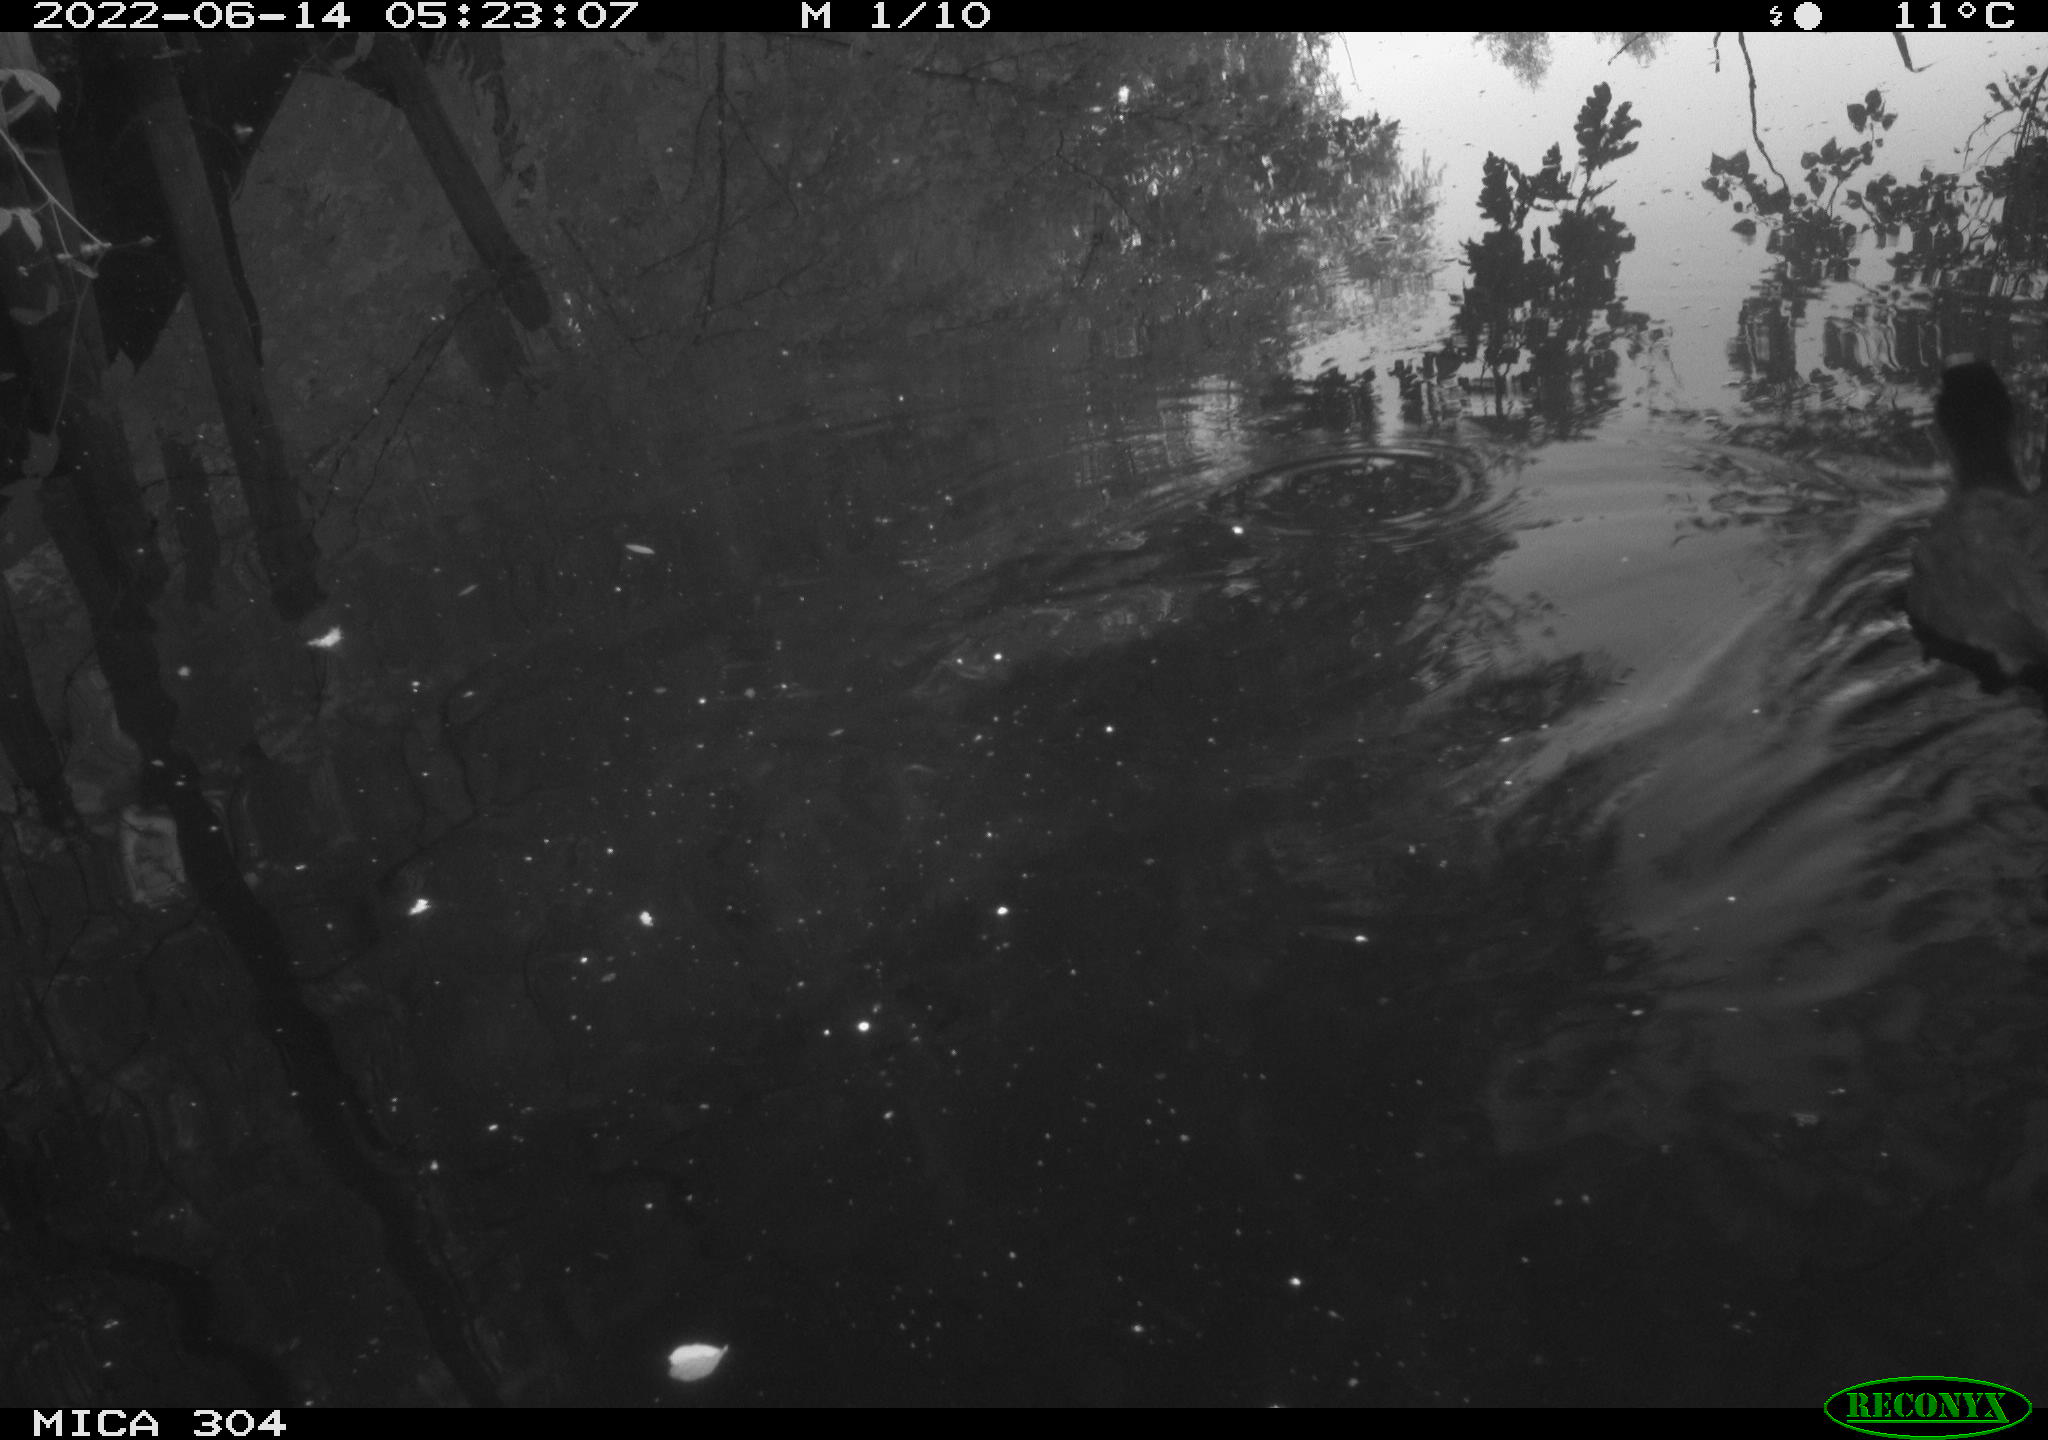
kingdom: Animalia
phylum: Chordata
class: Aves
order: Gruiformes
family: Rallidae
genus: Fulica
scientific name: Fulica atra
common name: Eurasian coot
